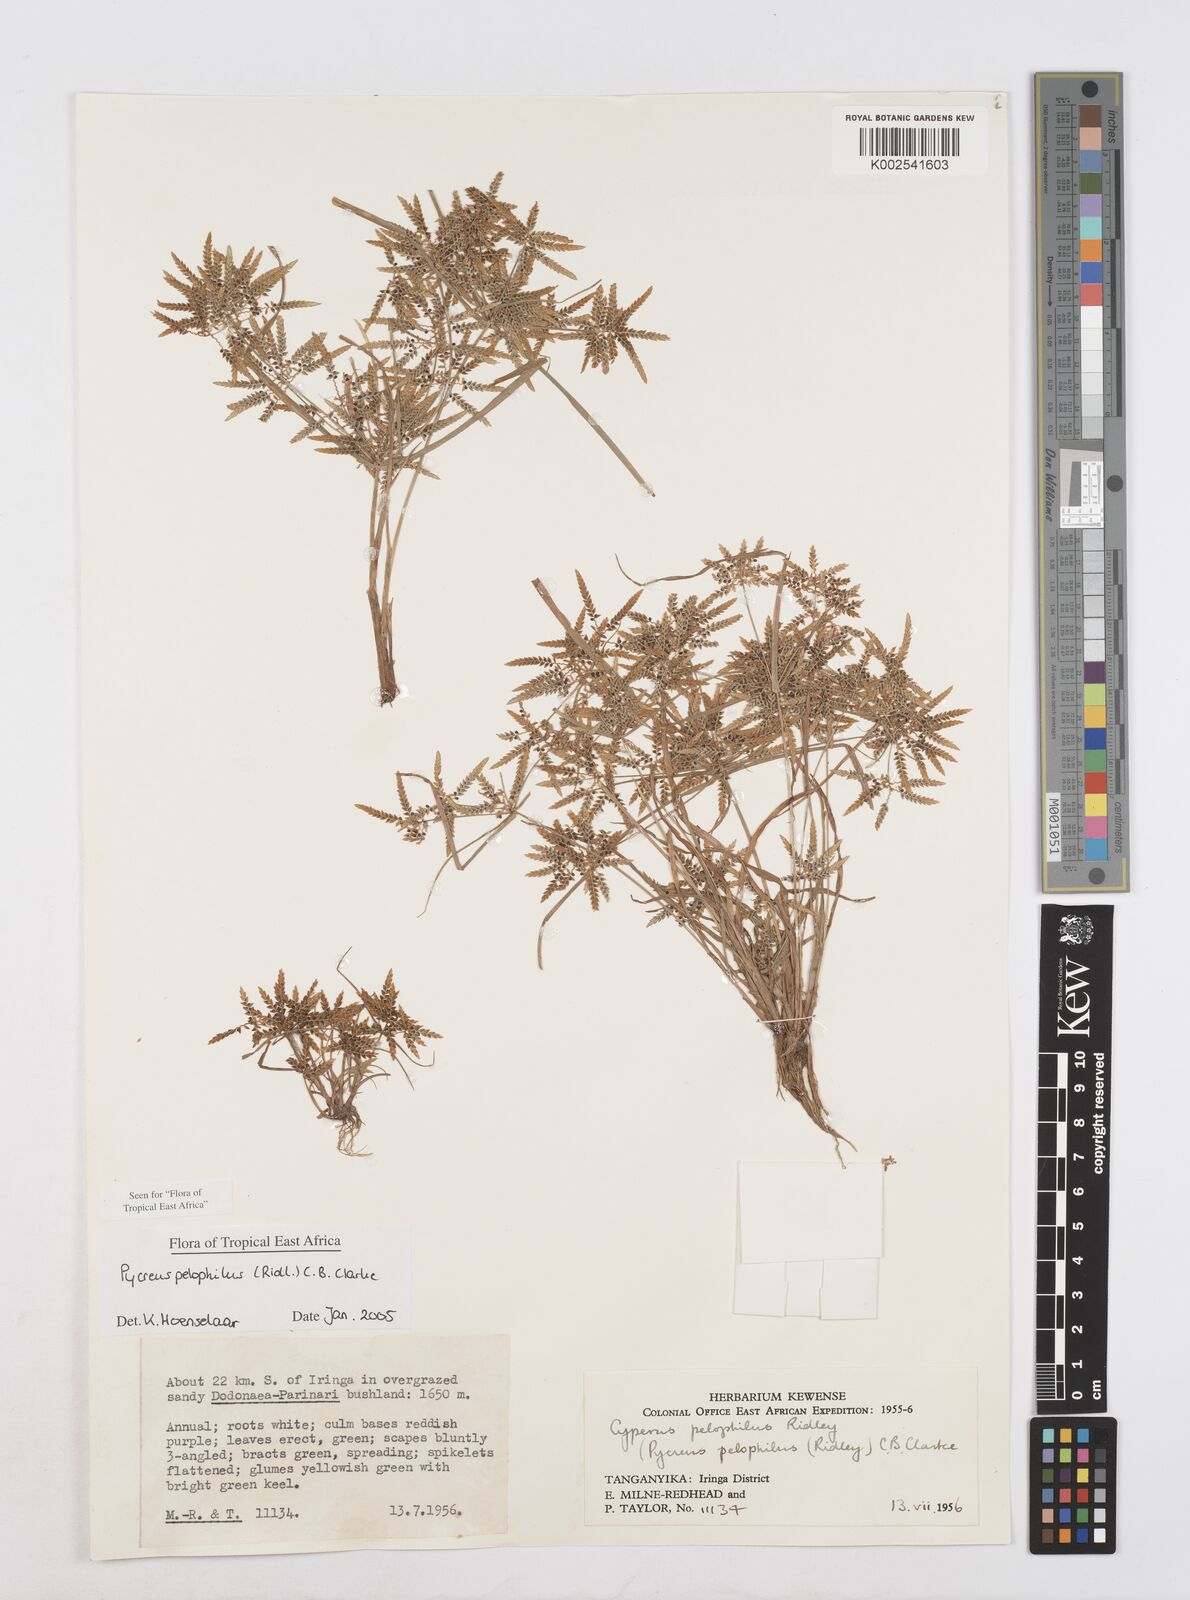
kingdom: Plantae
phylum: Tracheophyta
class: Liliopsida
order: Poales
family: Cyperaceae
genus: Cyperus
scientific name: Cyperus pelophilus
